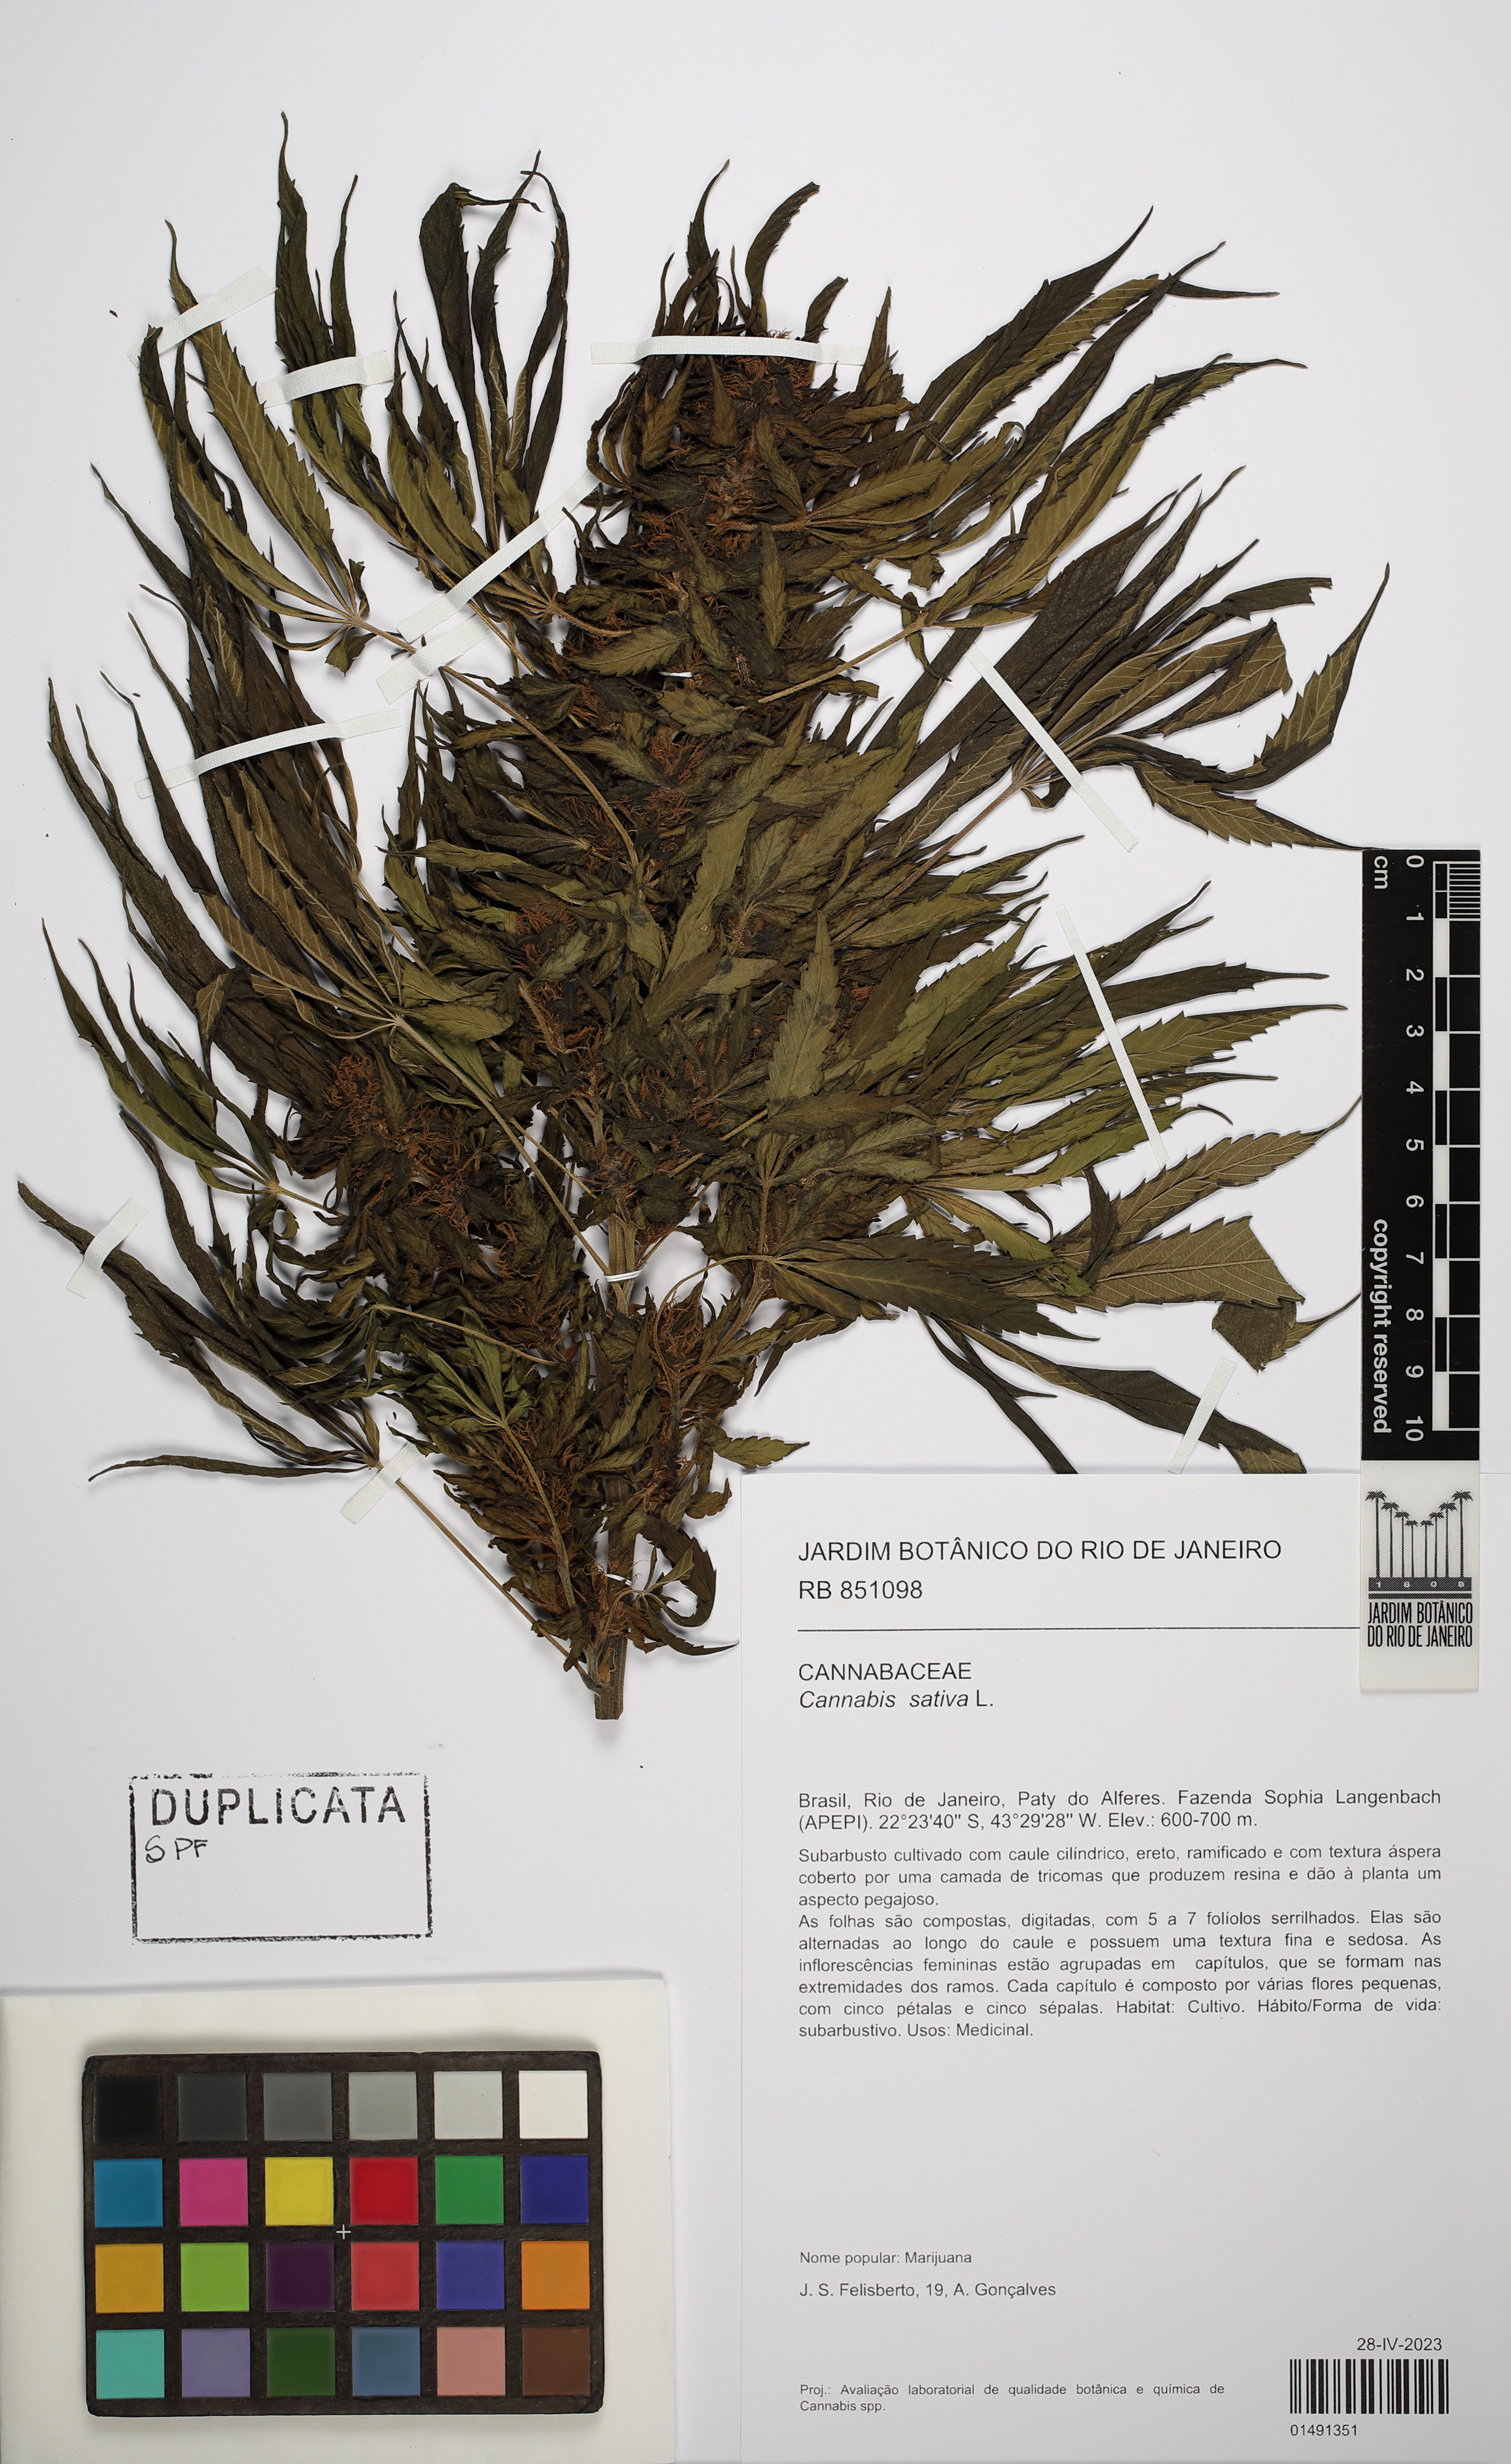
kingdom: Plantae
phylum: Tracheophyta
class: Magnoliopsida
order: Rosales
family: Cannabaceae
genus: Cannabis
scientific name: Cannabis sativa
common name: Hemp
